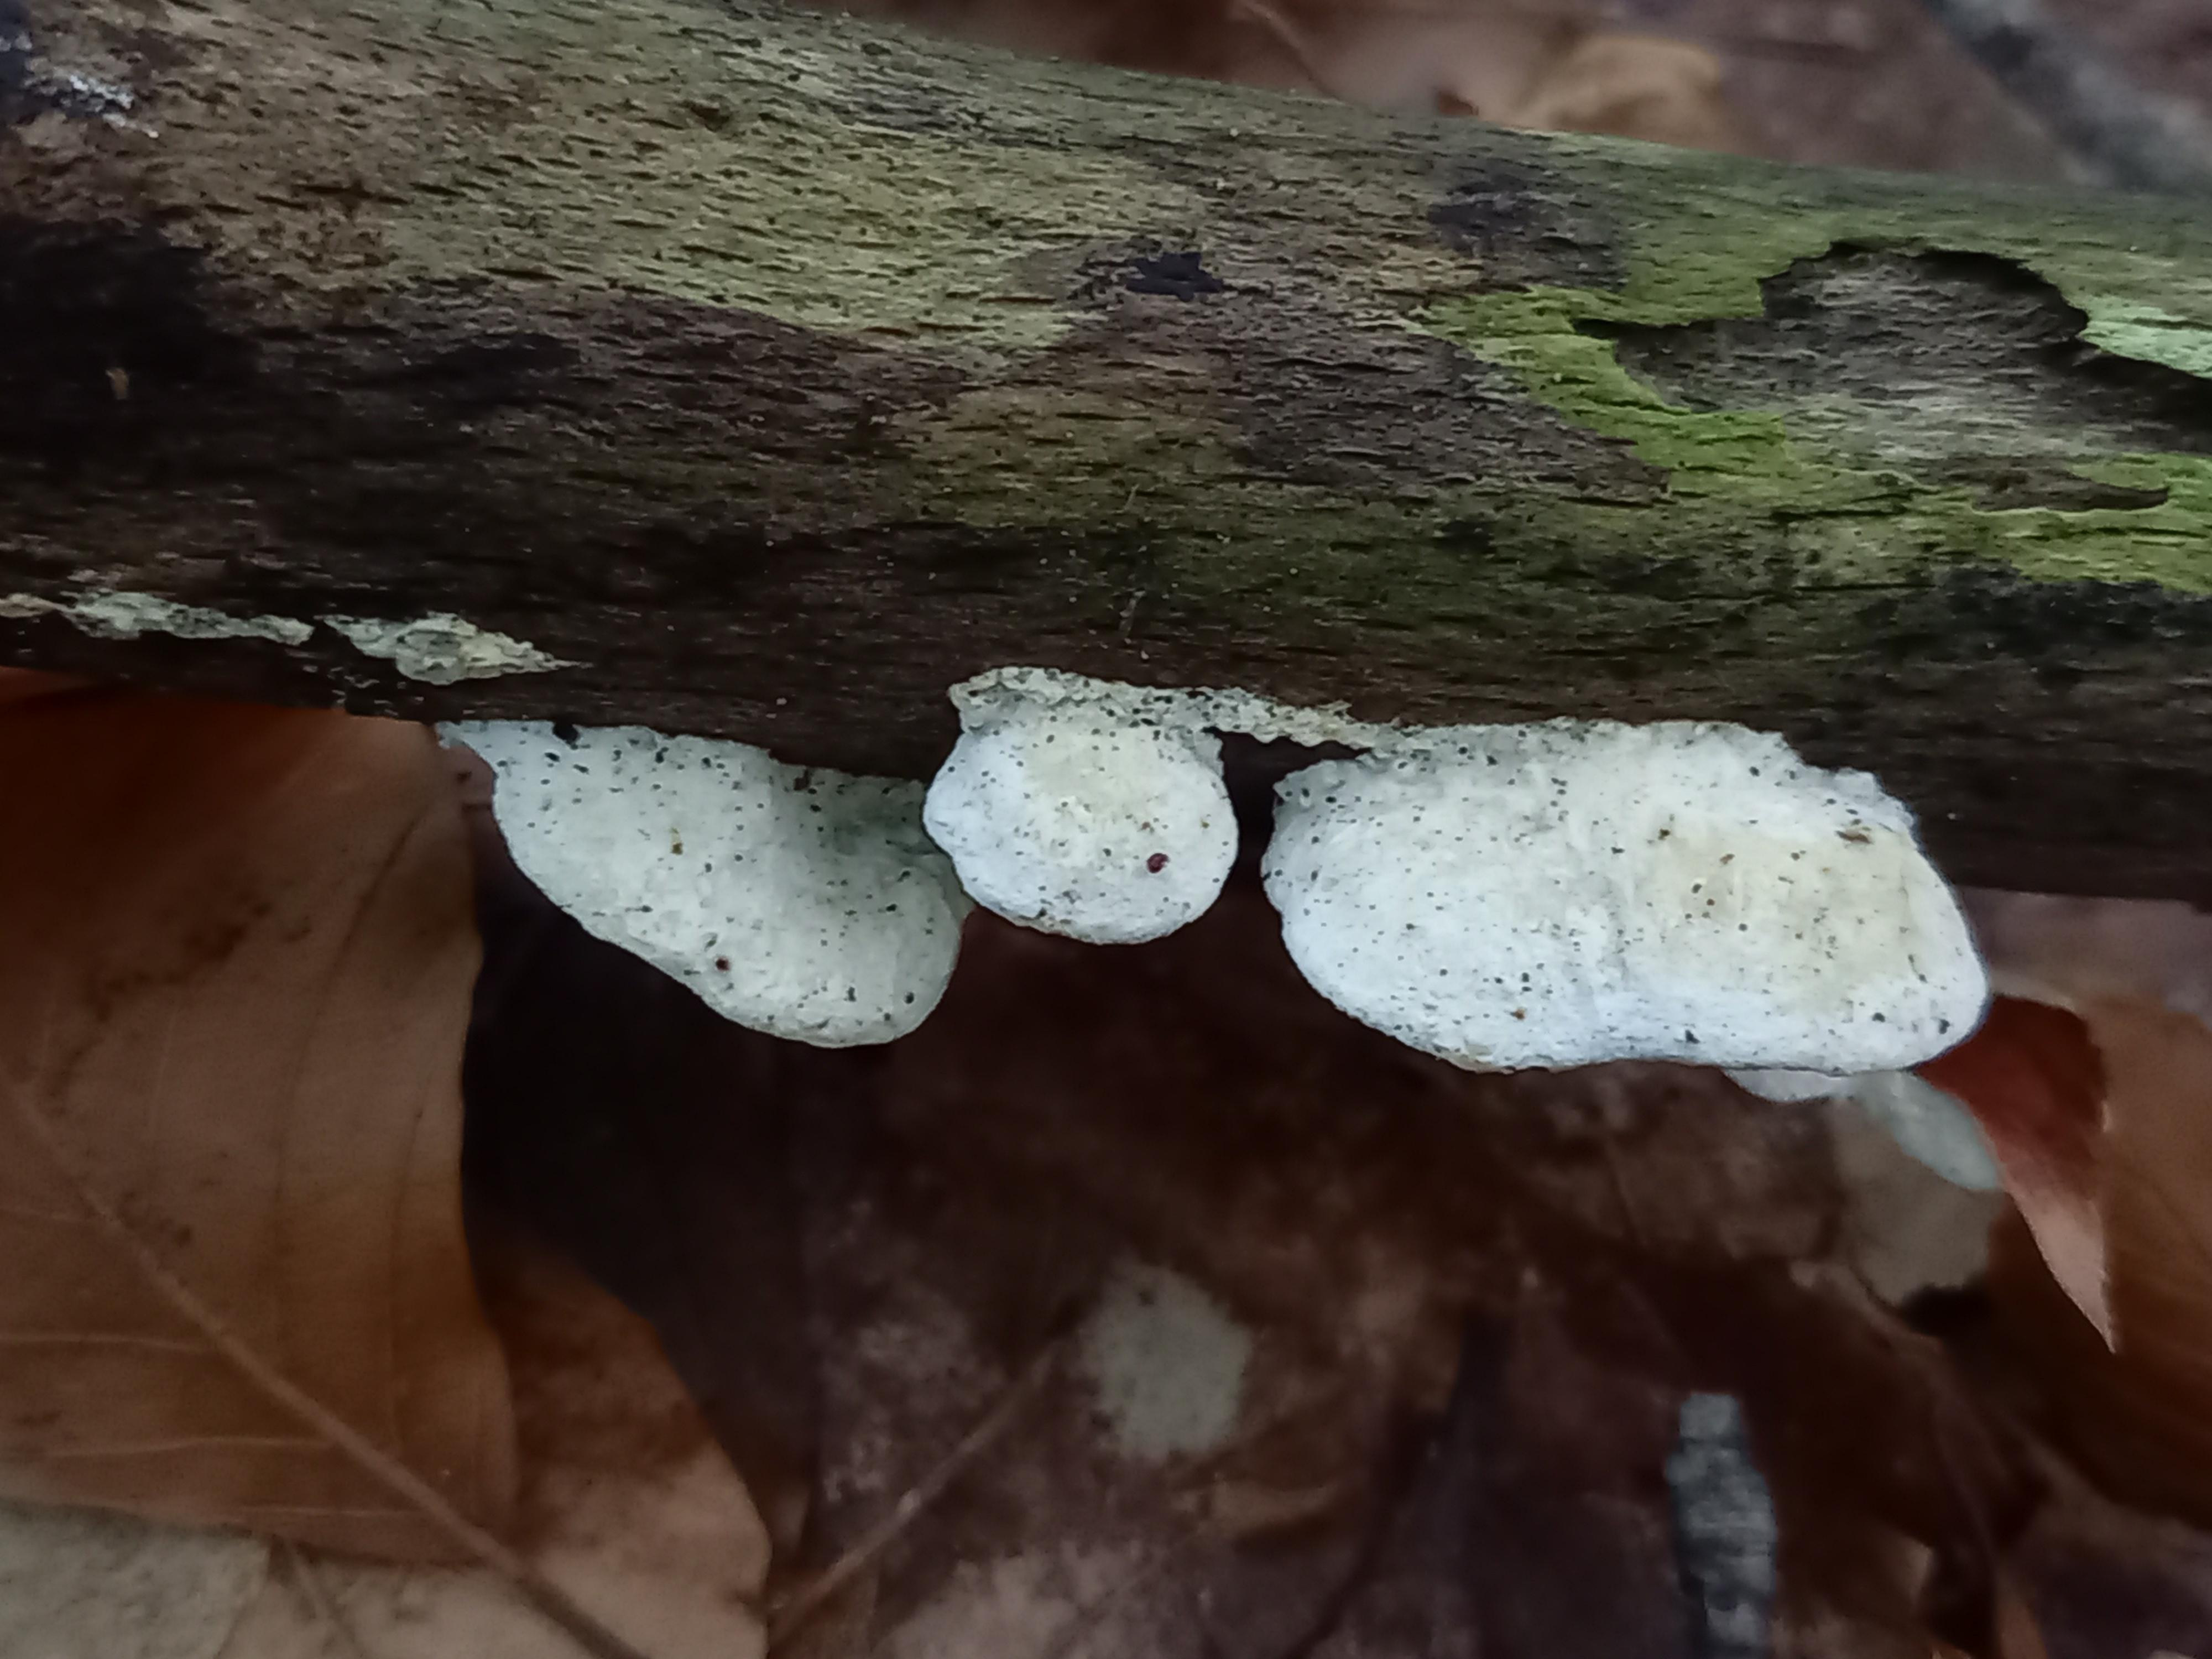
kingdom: Fungi
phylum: Basidiomycota
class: Agaricomycetes
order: Polyporales
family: Incrustoporiaceae
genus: Skeletocutis
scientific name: Skeletocutis nemoralis
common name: stor krystalporesvamp
